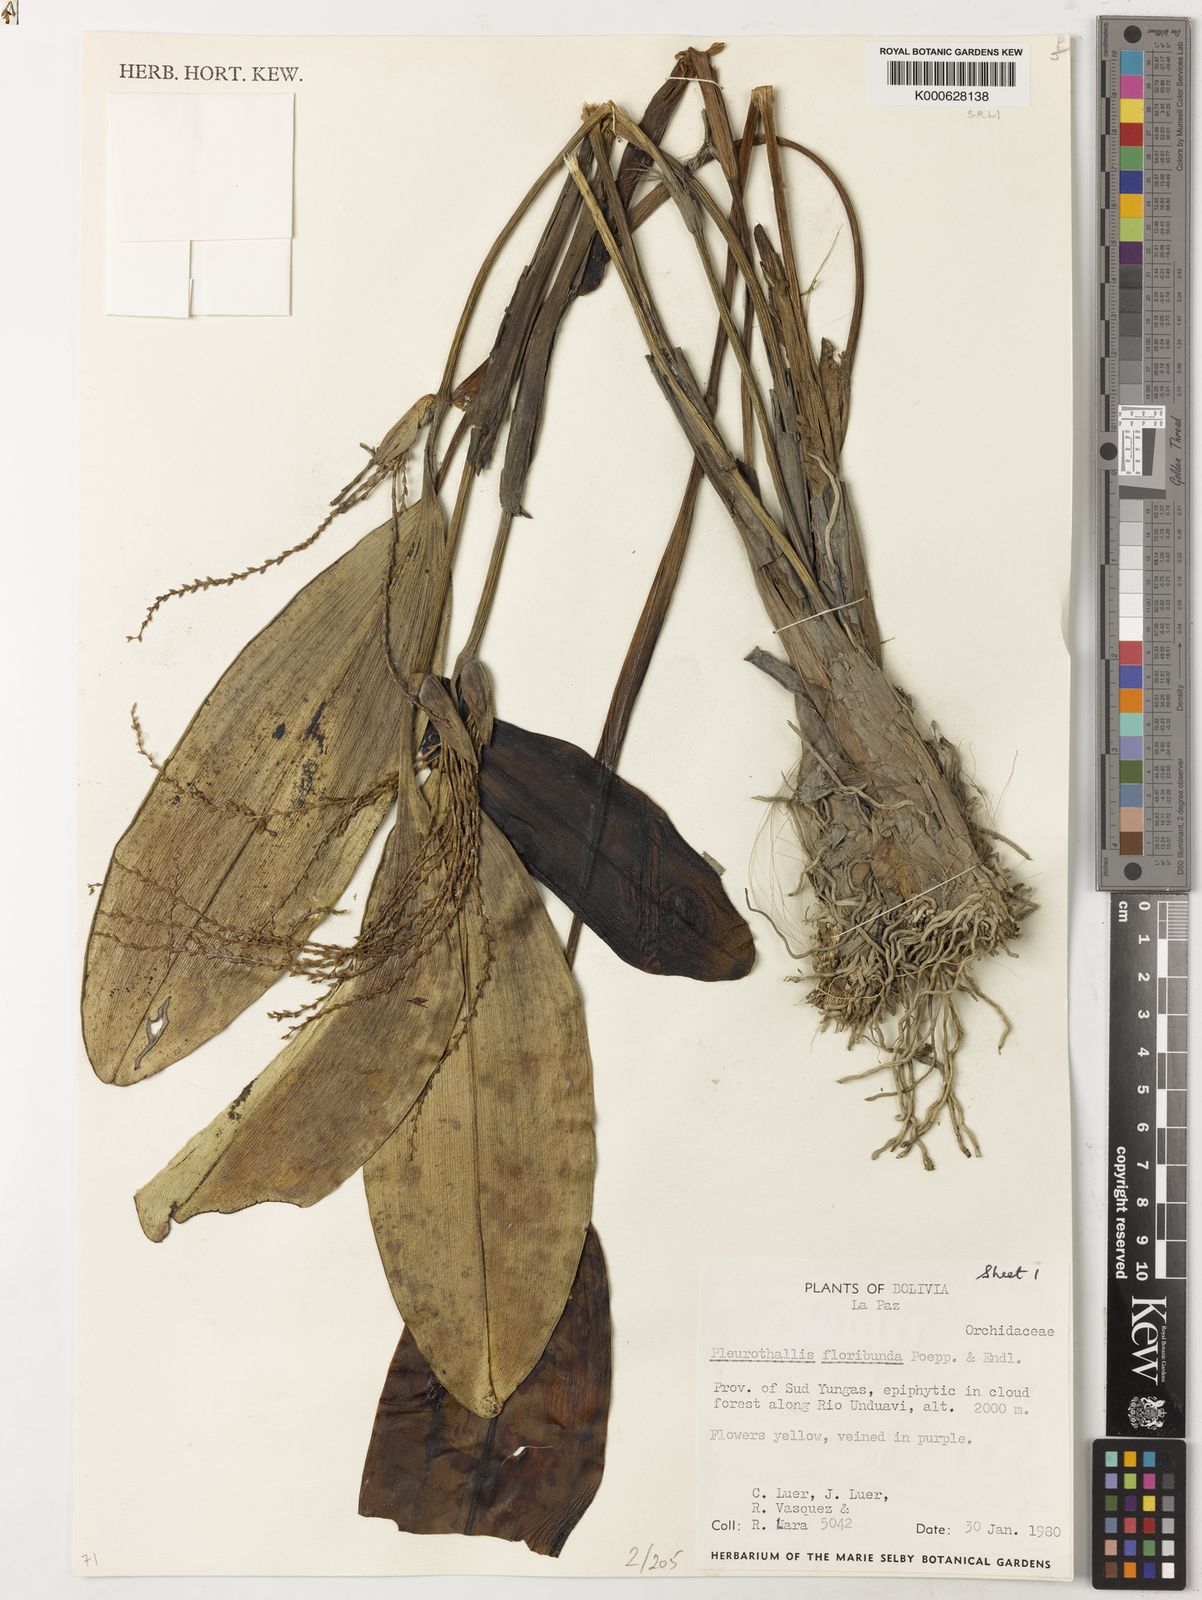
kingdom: Plantae
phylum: Tracheophyta
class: Liliopsida
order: Asparagales
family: Orchidaceae
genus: Pleurothallis
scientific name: Pleurothallis
